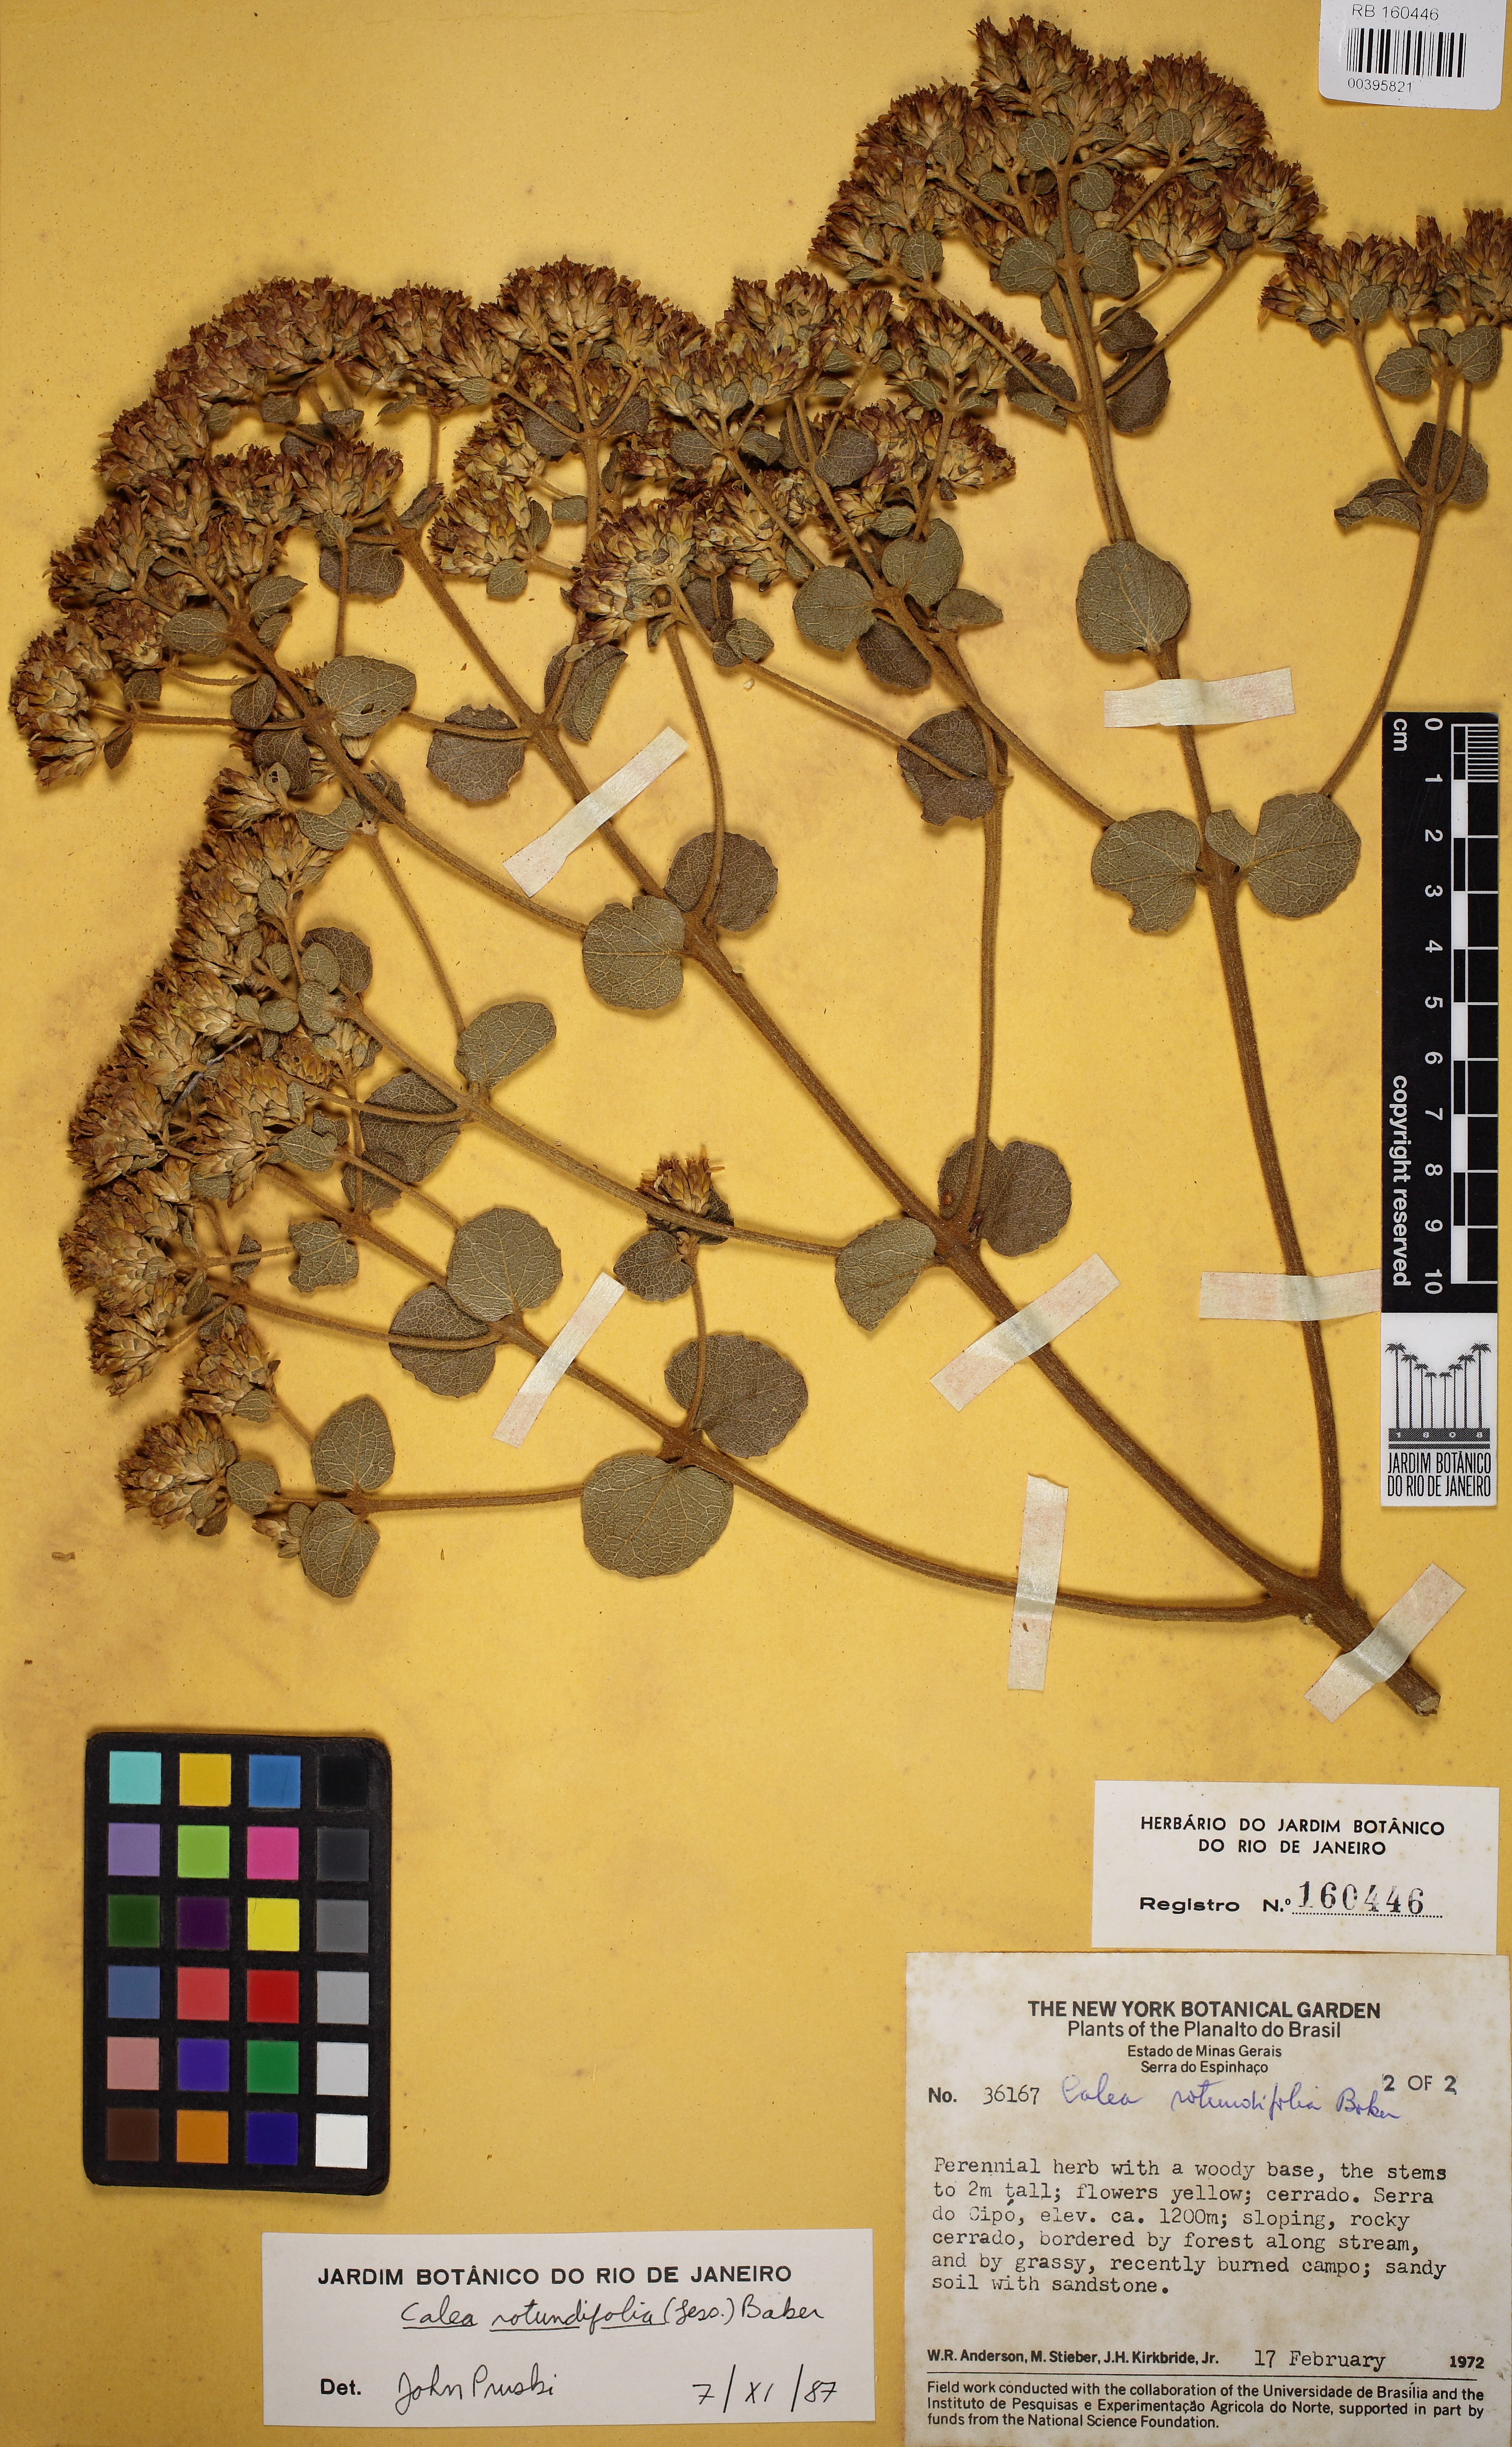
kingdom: Plantae
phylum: Tracheophyta
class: Magnoliopsida
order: Asterales
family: Asteraceae
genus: Calea
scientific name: Calea rotundifolia
